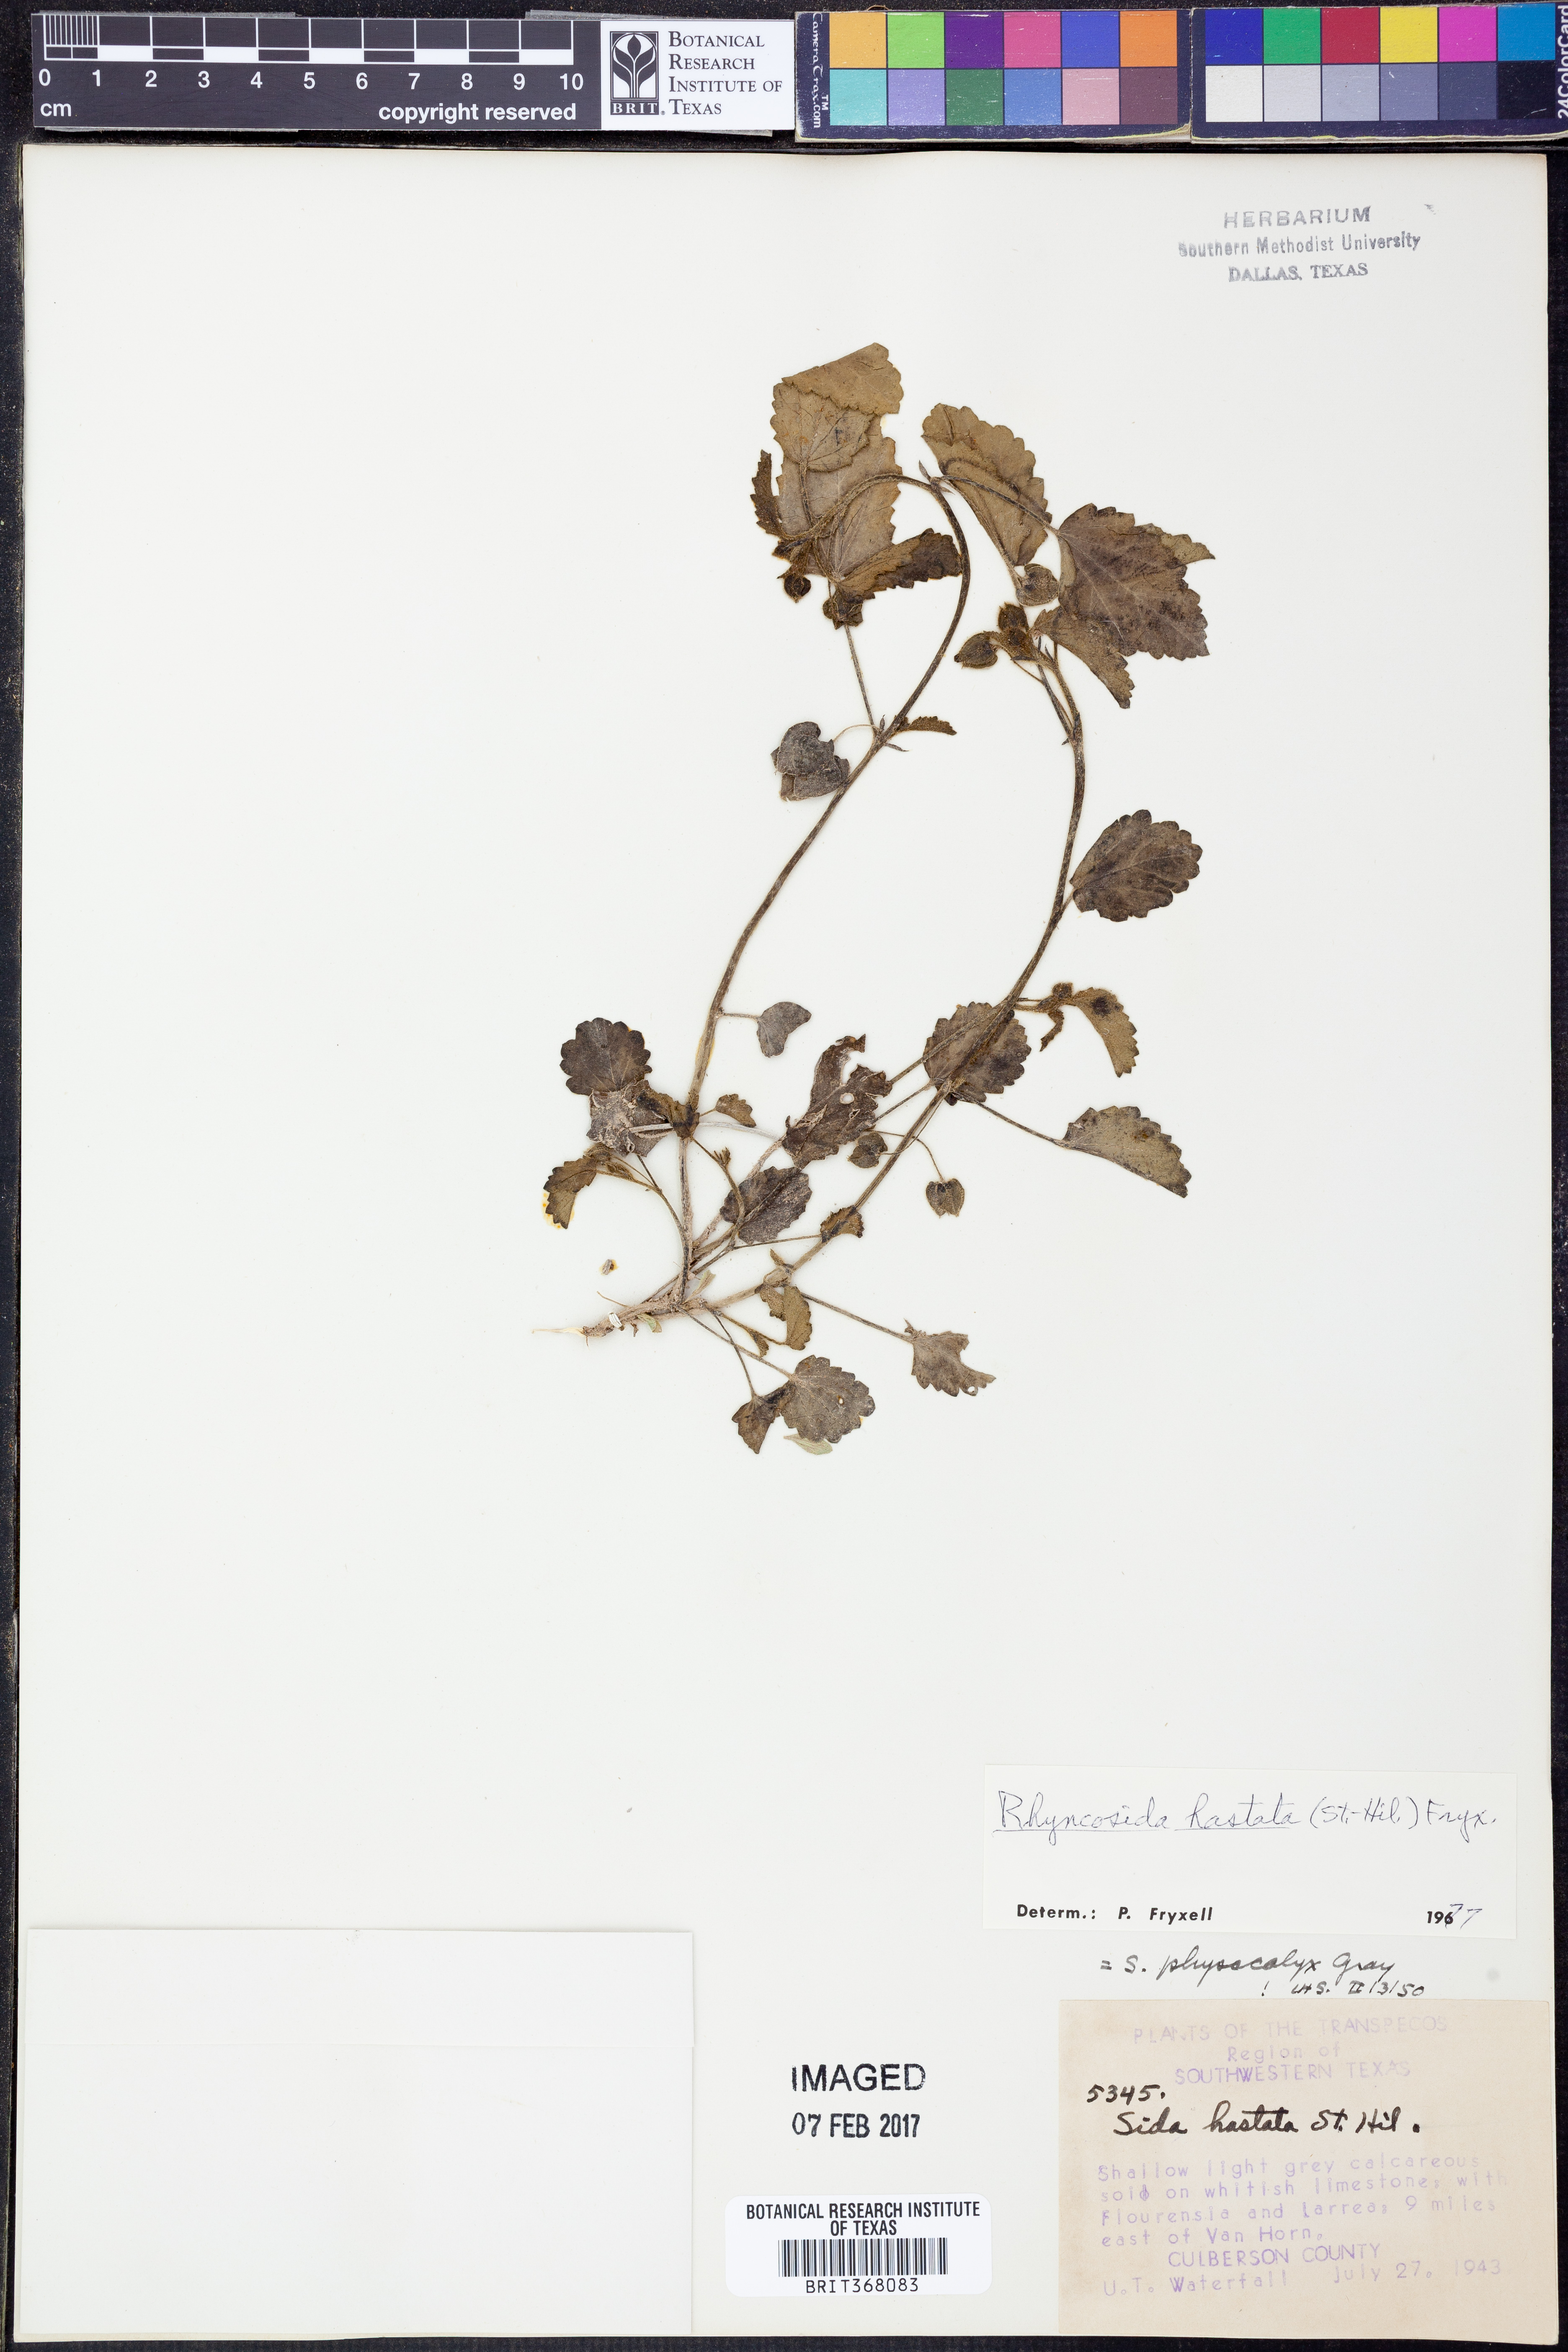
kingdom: Plantae
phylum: Tracheophyta
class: Magnoliopsida
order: Malvales
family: Malvaceae
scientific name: Malvaceae
